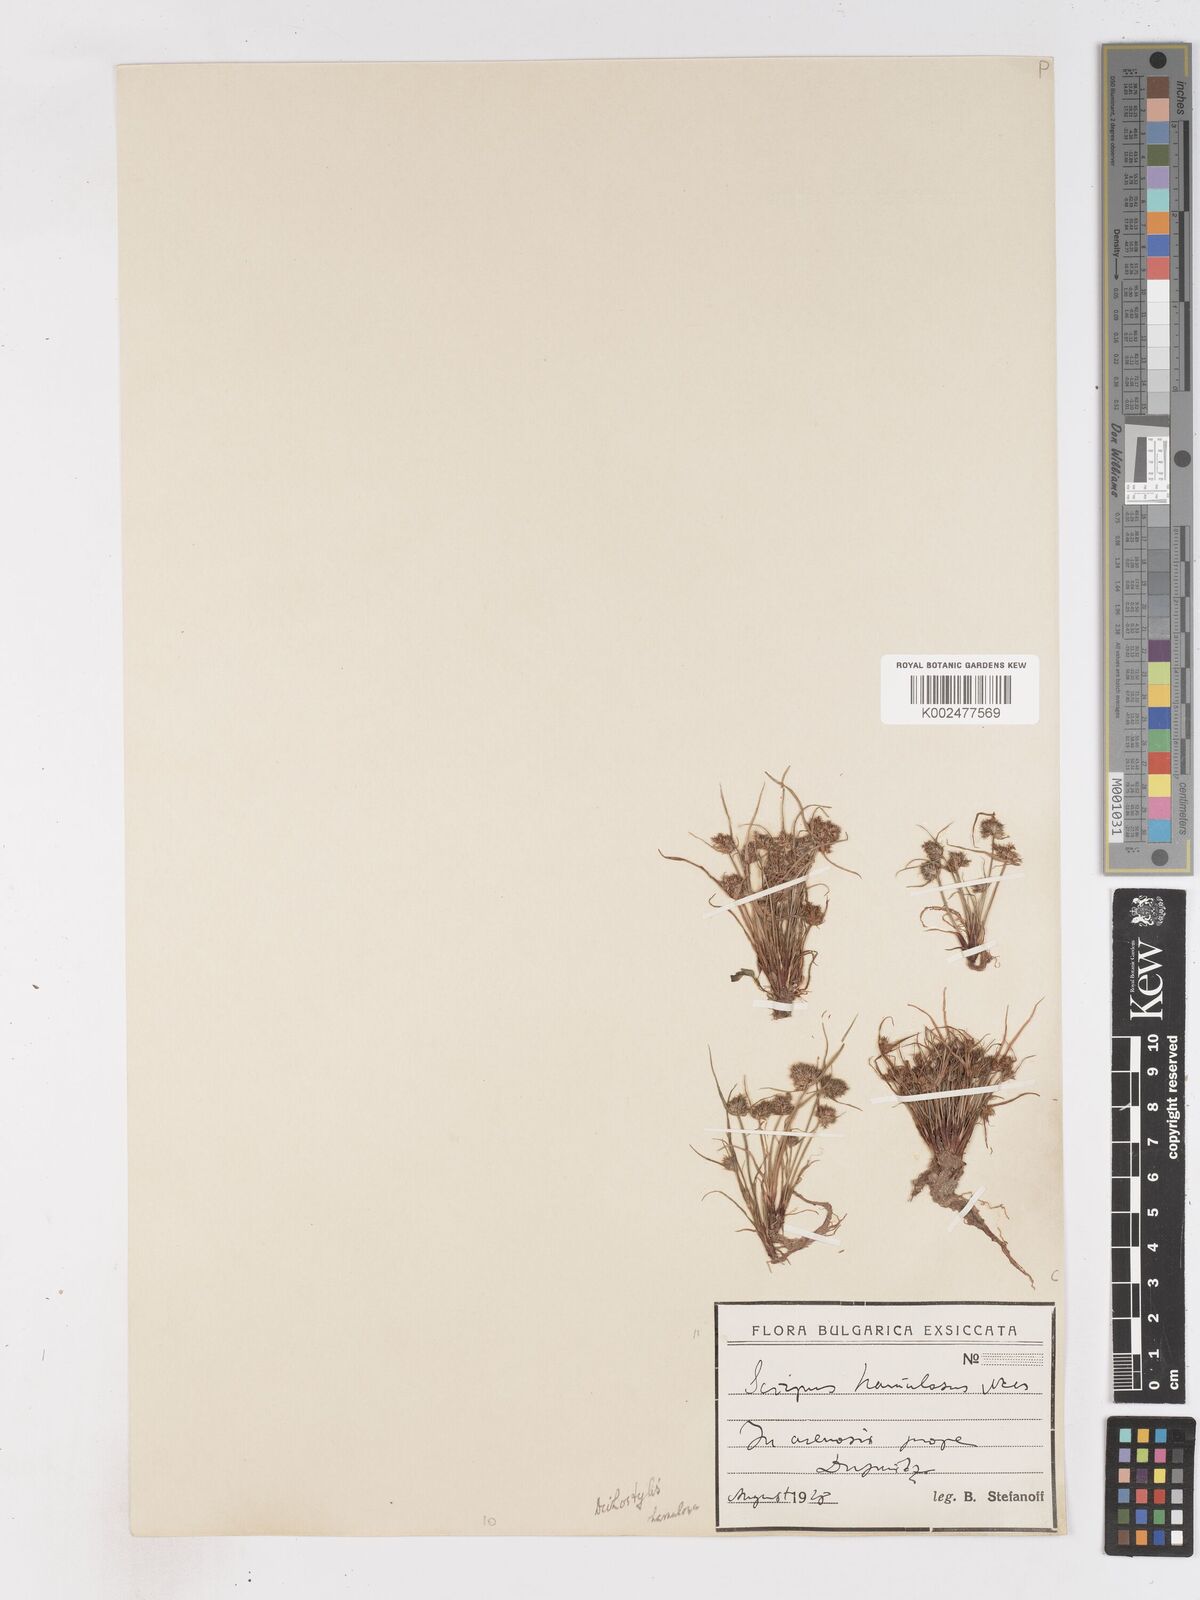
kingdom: Plantae
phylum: Tracheophyta
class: Liliopsida
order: Poales
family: Cyperaceae
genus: Cyperus
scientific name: Cyperus hamulosus
